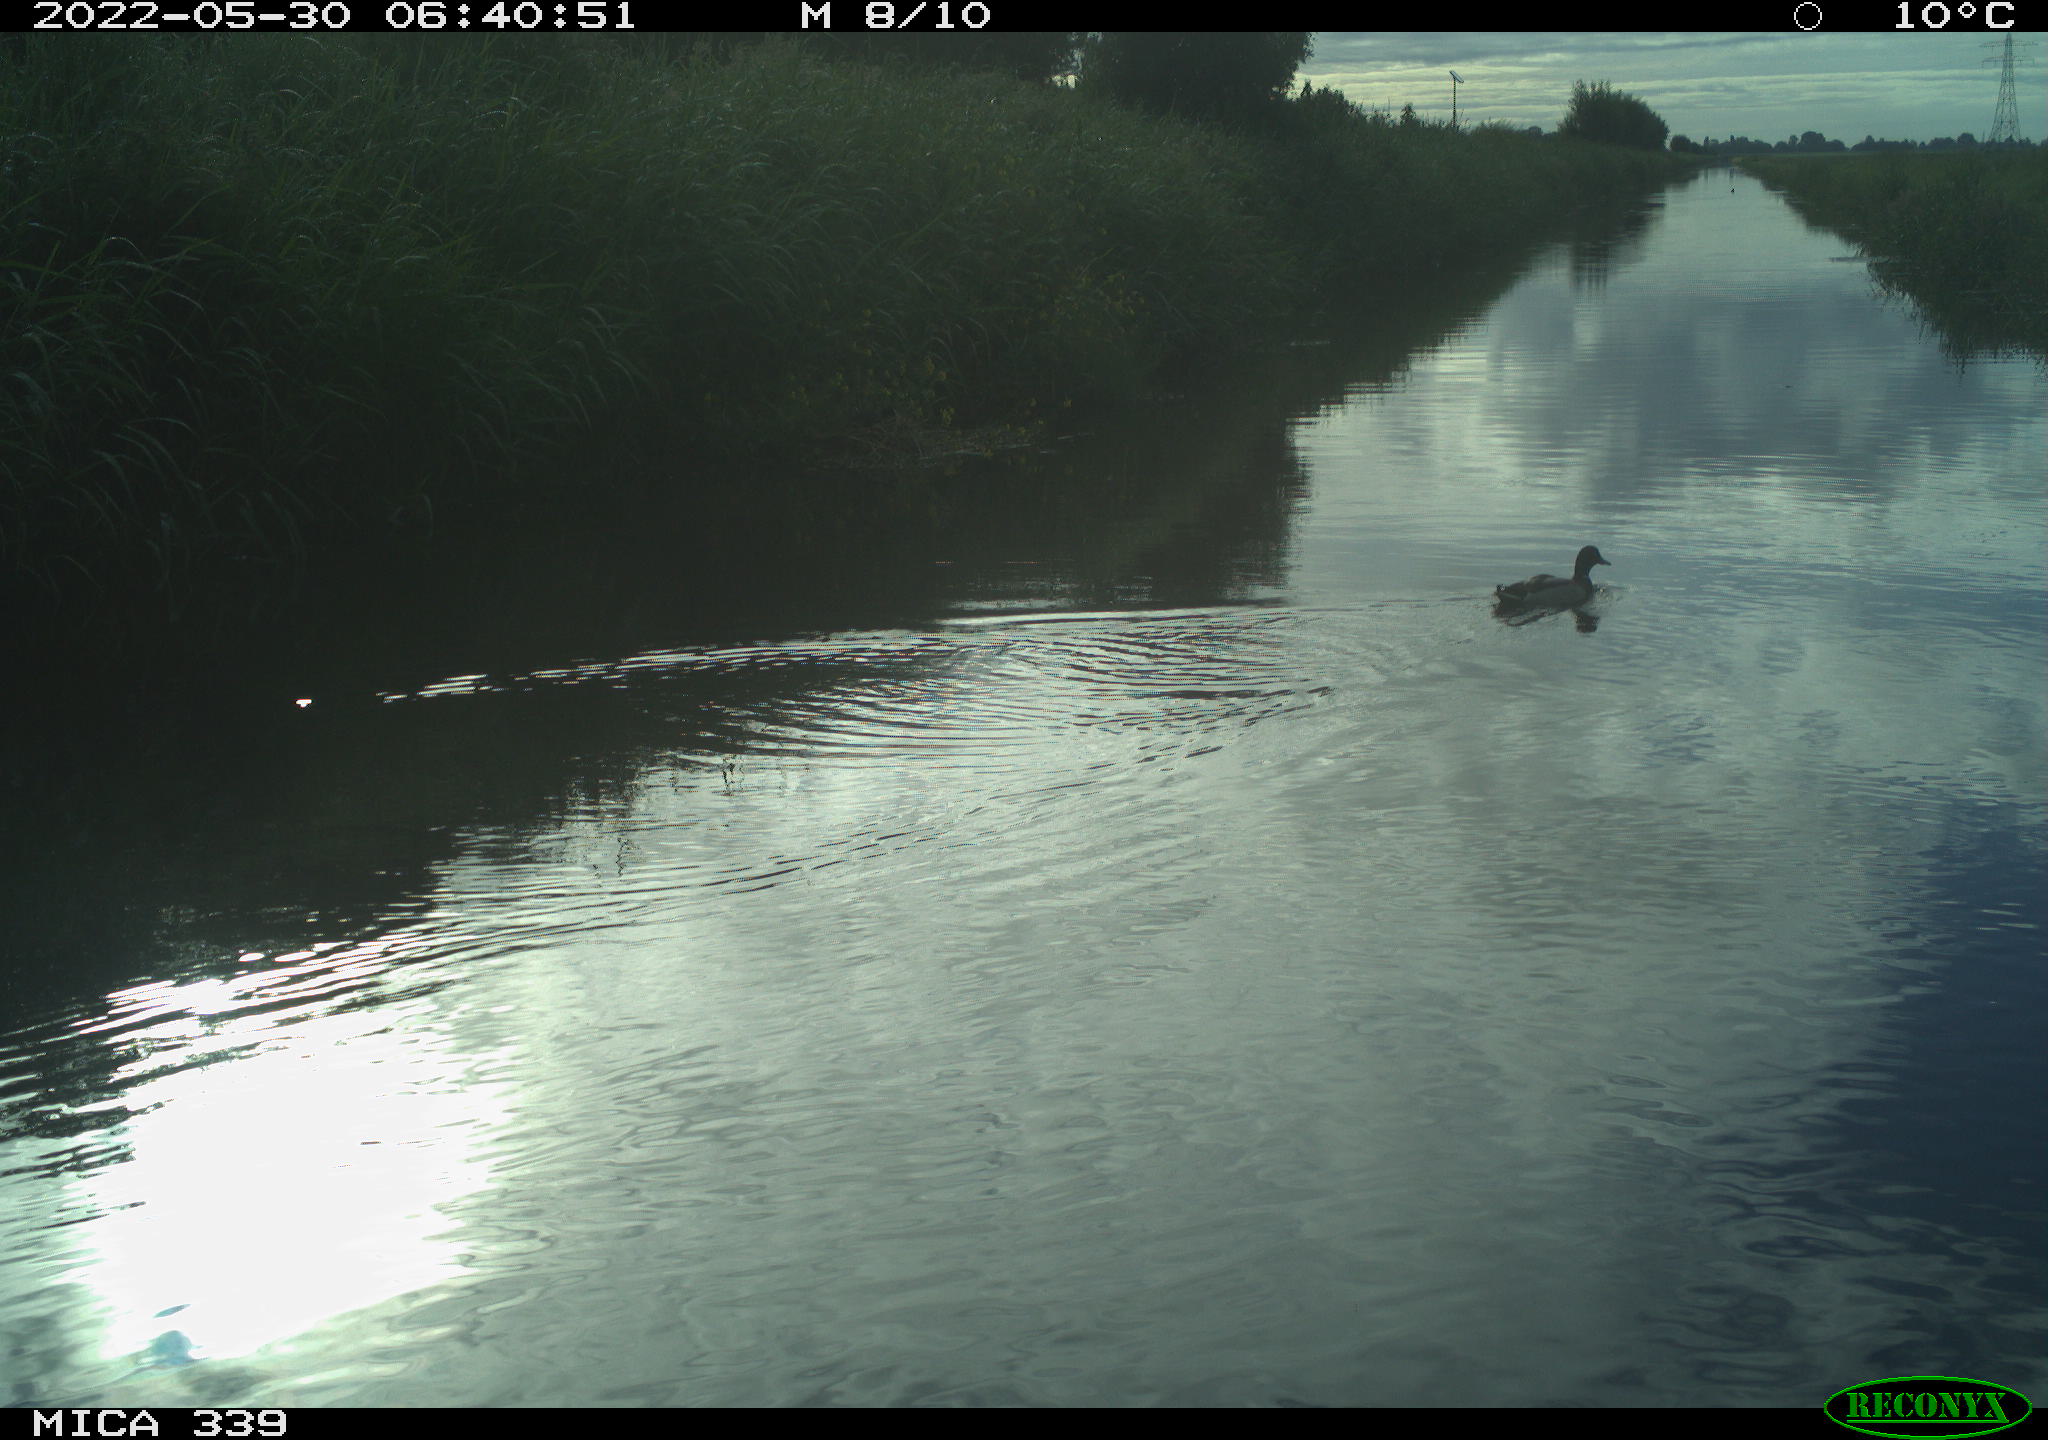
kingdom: Animalia
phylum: Chordata
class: Aves
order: Anseriformes
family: Anatidae
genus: Anas
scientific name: Anas platyrhynchos
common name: Mallard
